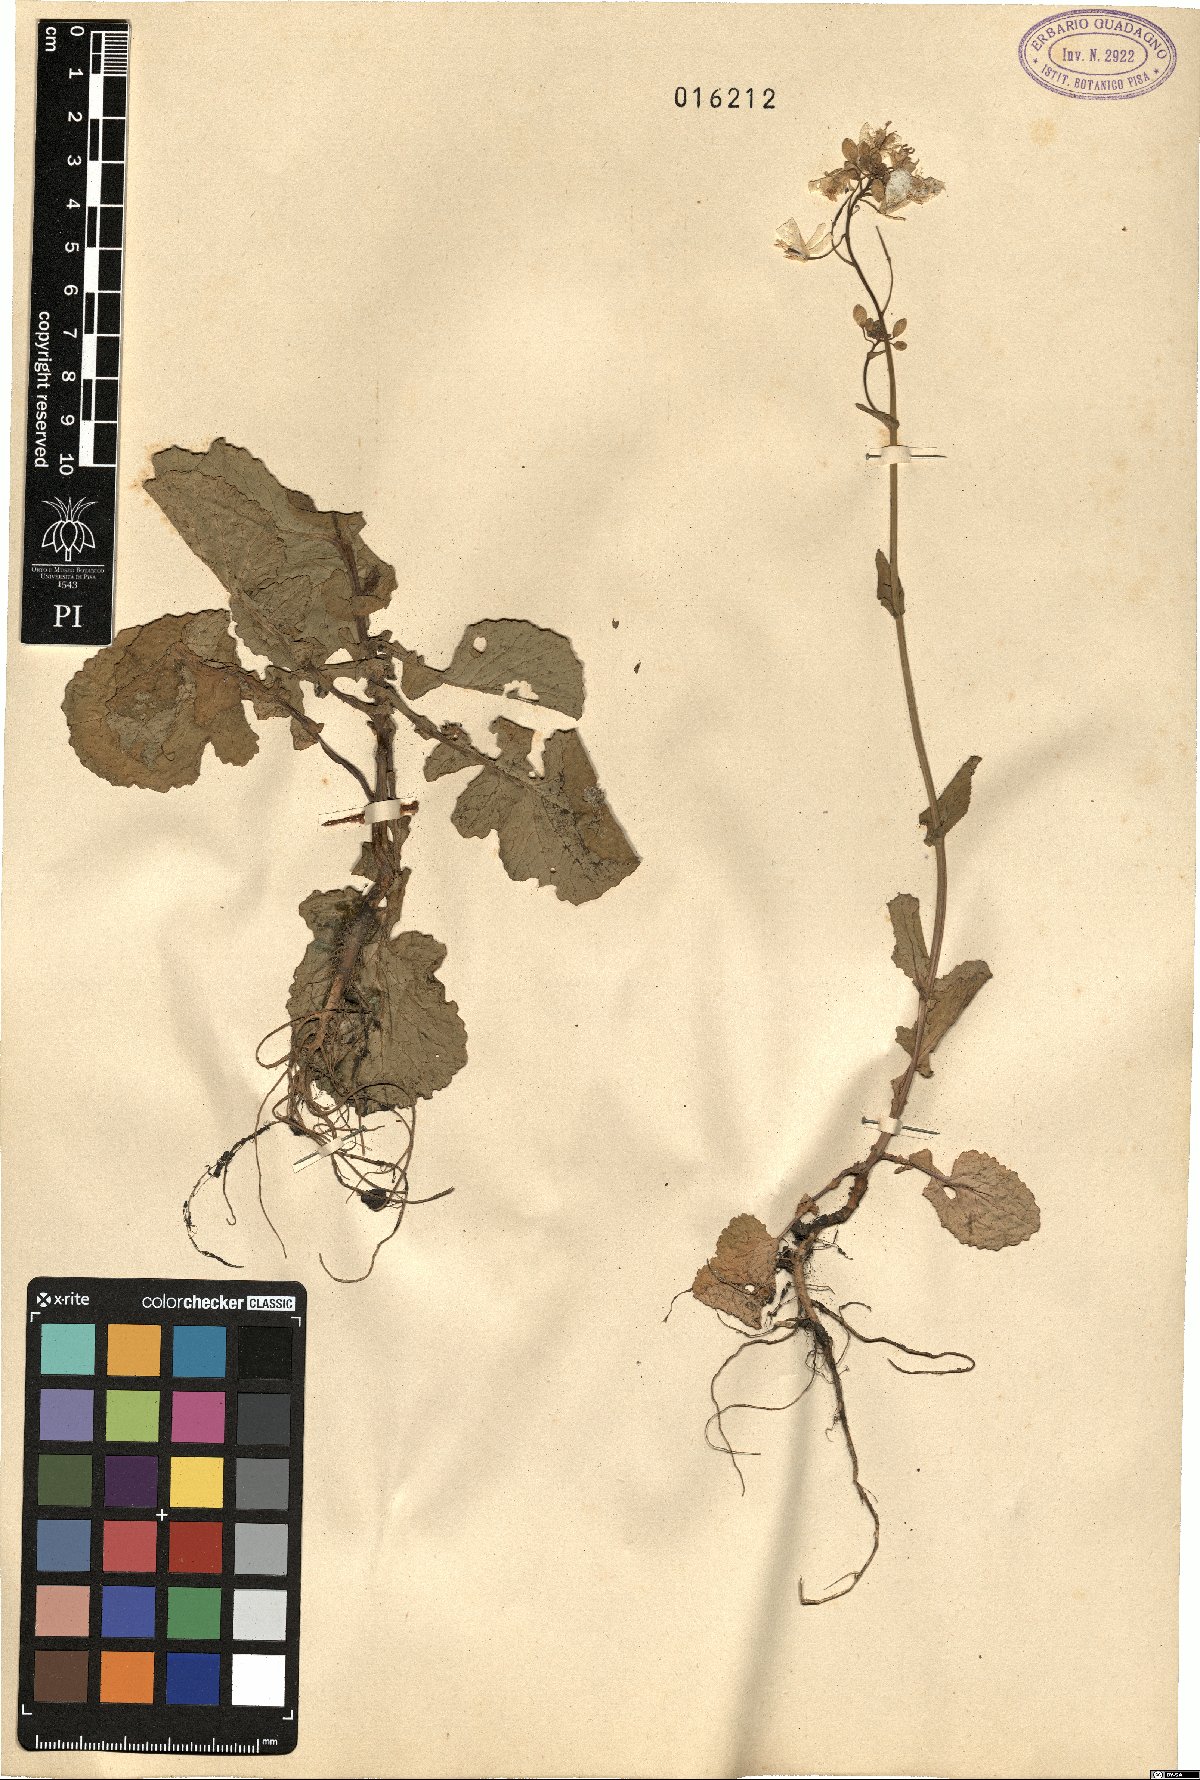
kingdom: Plantae
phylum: Tracheophyta
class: Magnoliopsida
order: Brassicales
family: Brassicaceae
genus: Brassica
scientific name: Brassica
